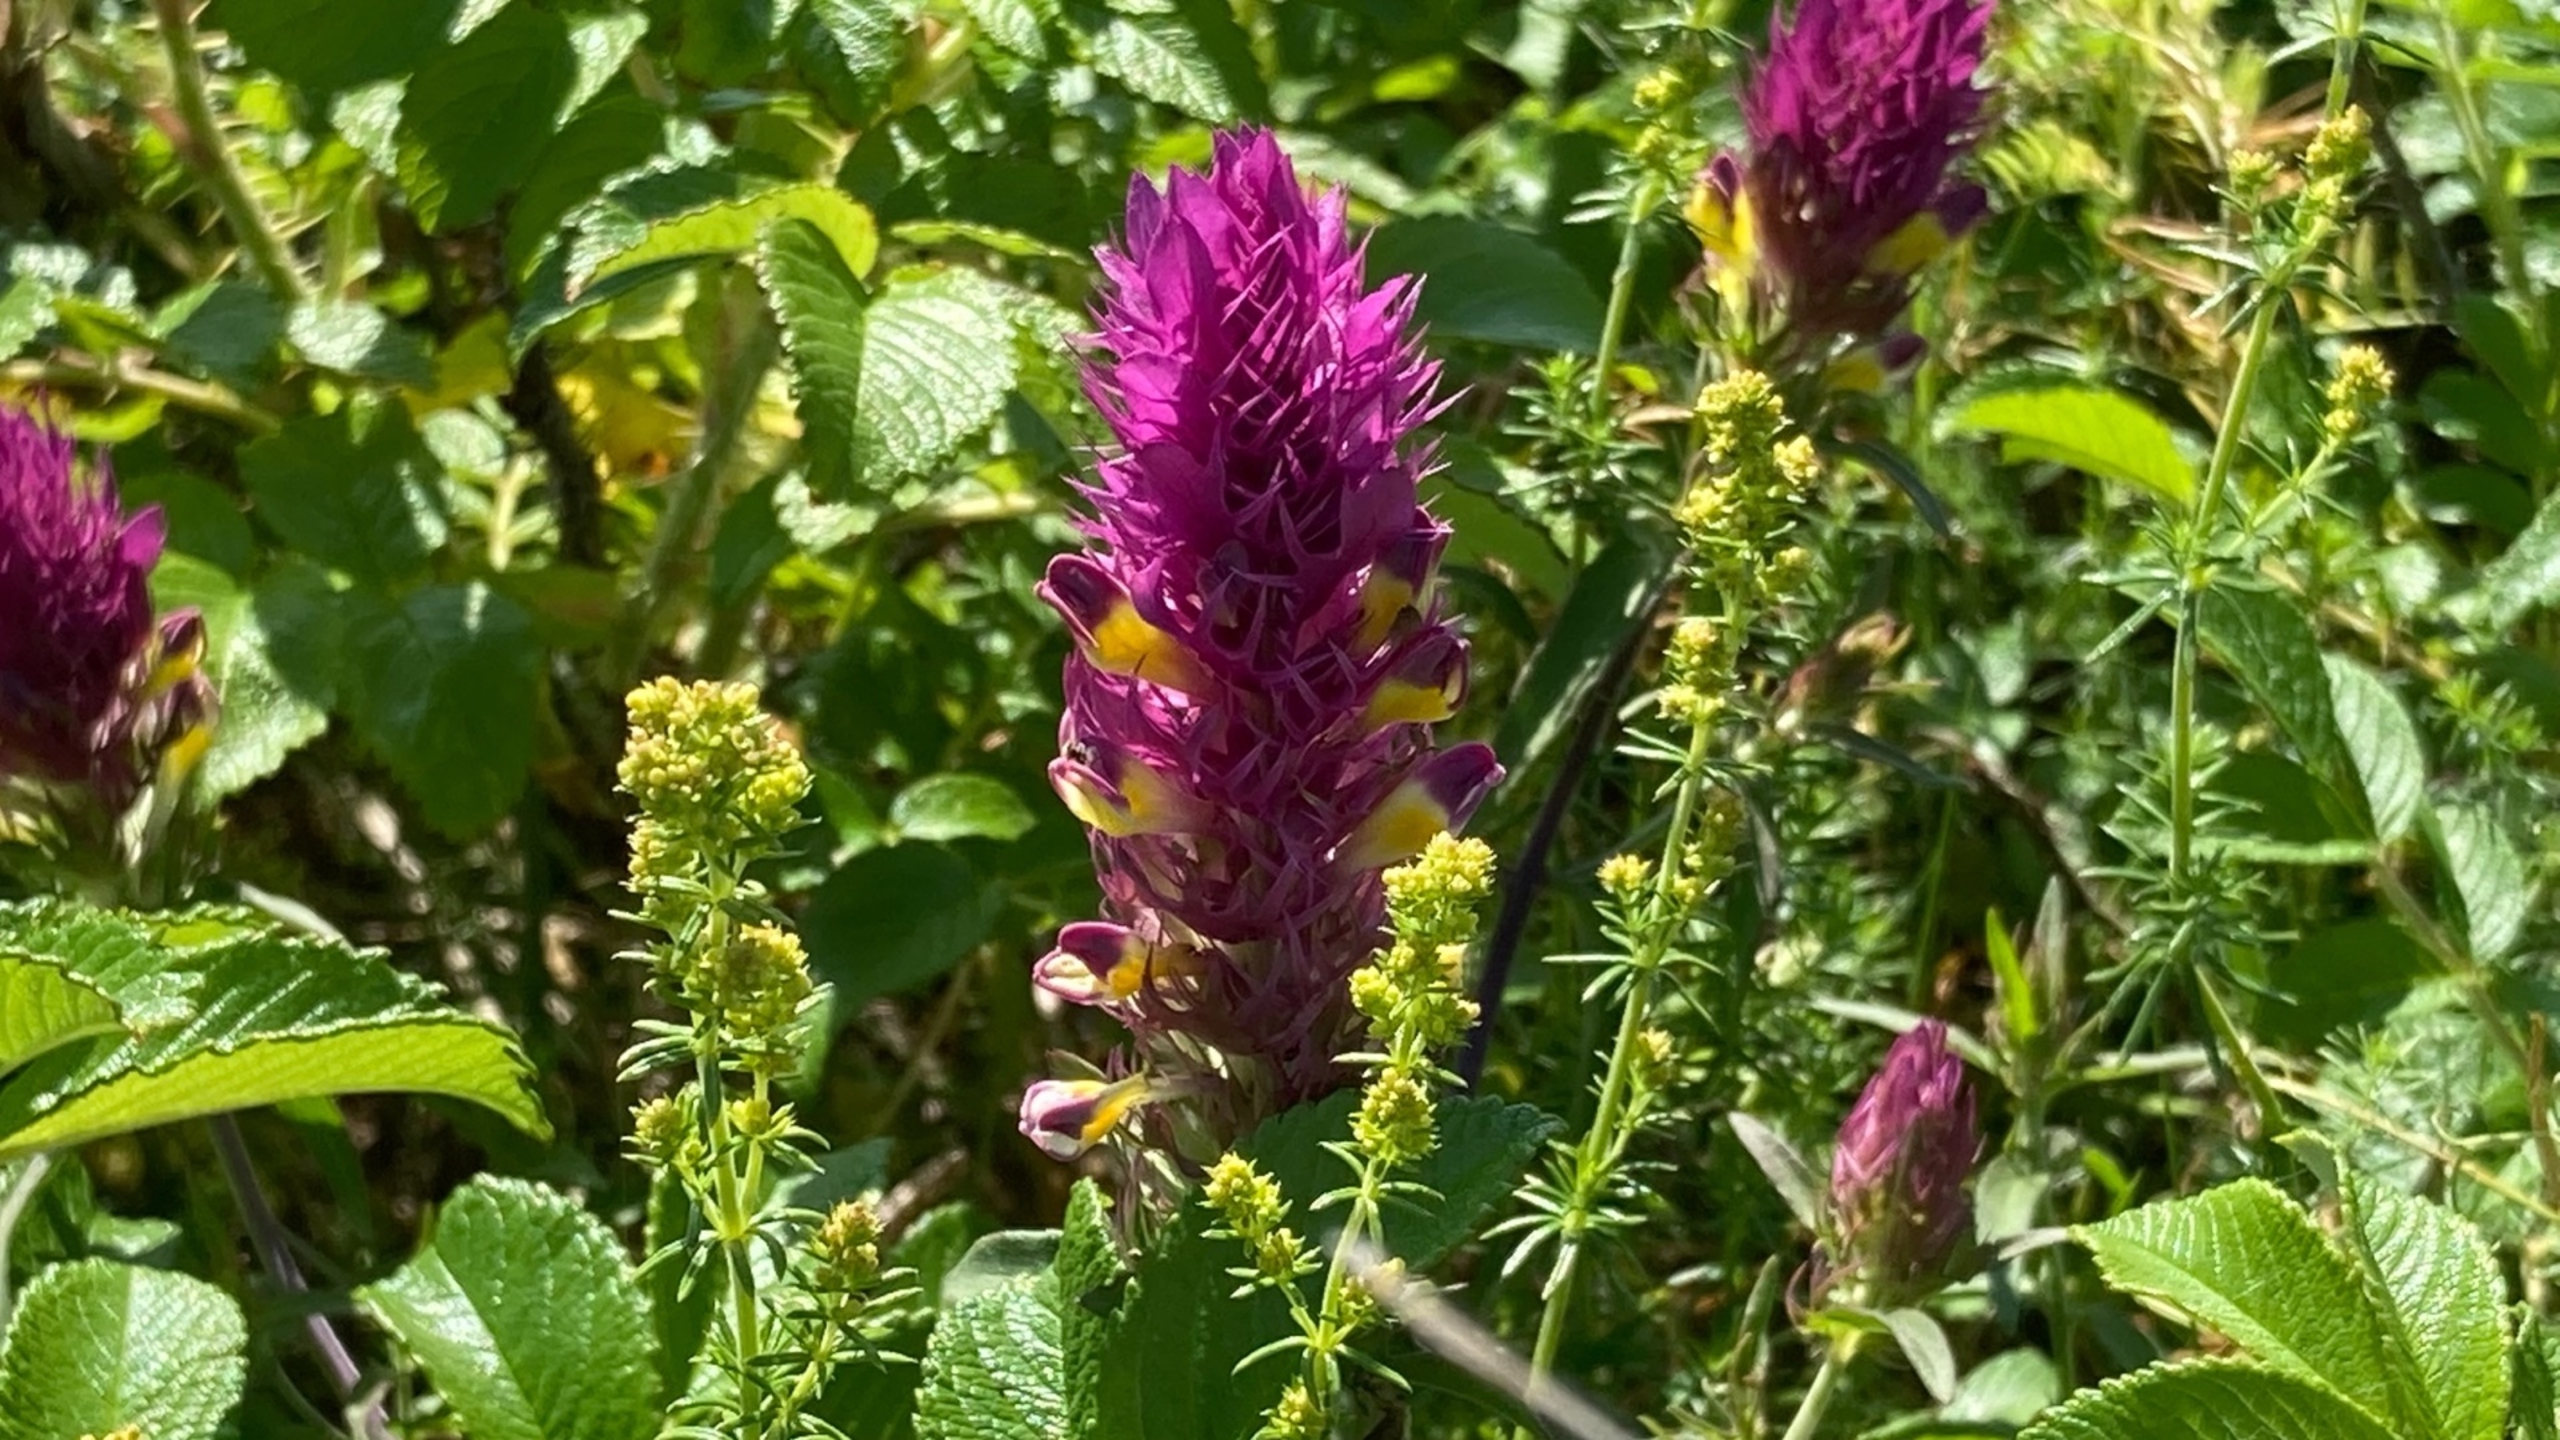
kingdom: Plantae
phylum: Tracheophyta
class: Magnoliopsida
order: Lamiales
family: Orobanchaceae
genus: Melampyrum
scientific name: Melampyrum arvense
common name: Ager-kohvede
